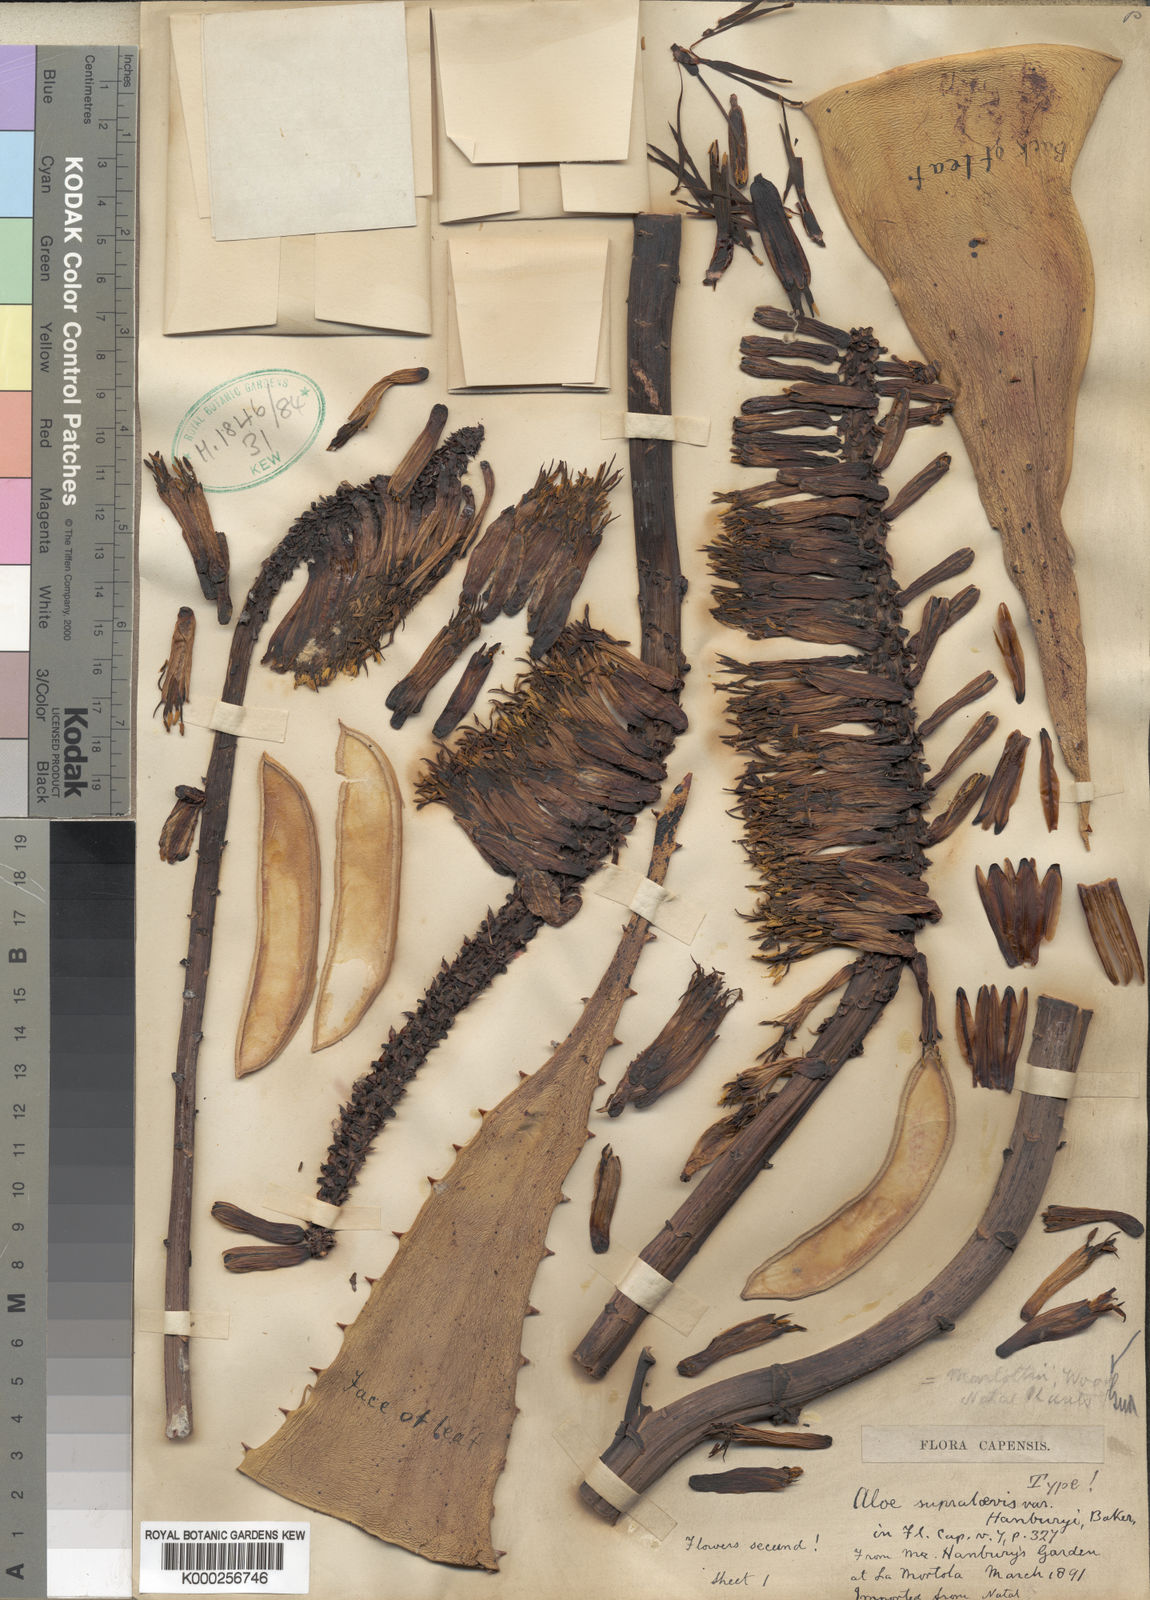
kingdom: Plantae
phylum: Tracheophyta
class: Liliopsida
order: Asparagales
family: Asphodelaceae
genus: Aloe
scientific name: Aloe marlothii
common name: Flat-flowered aloe
